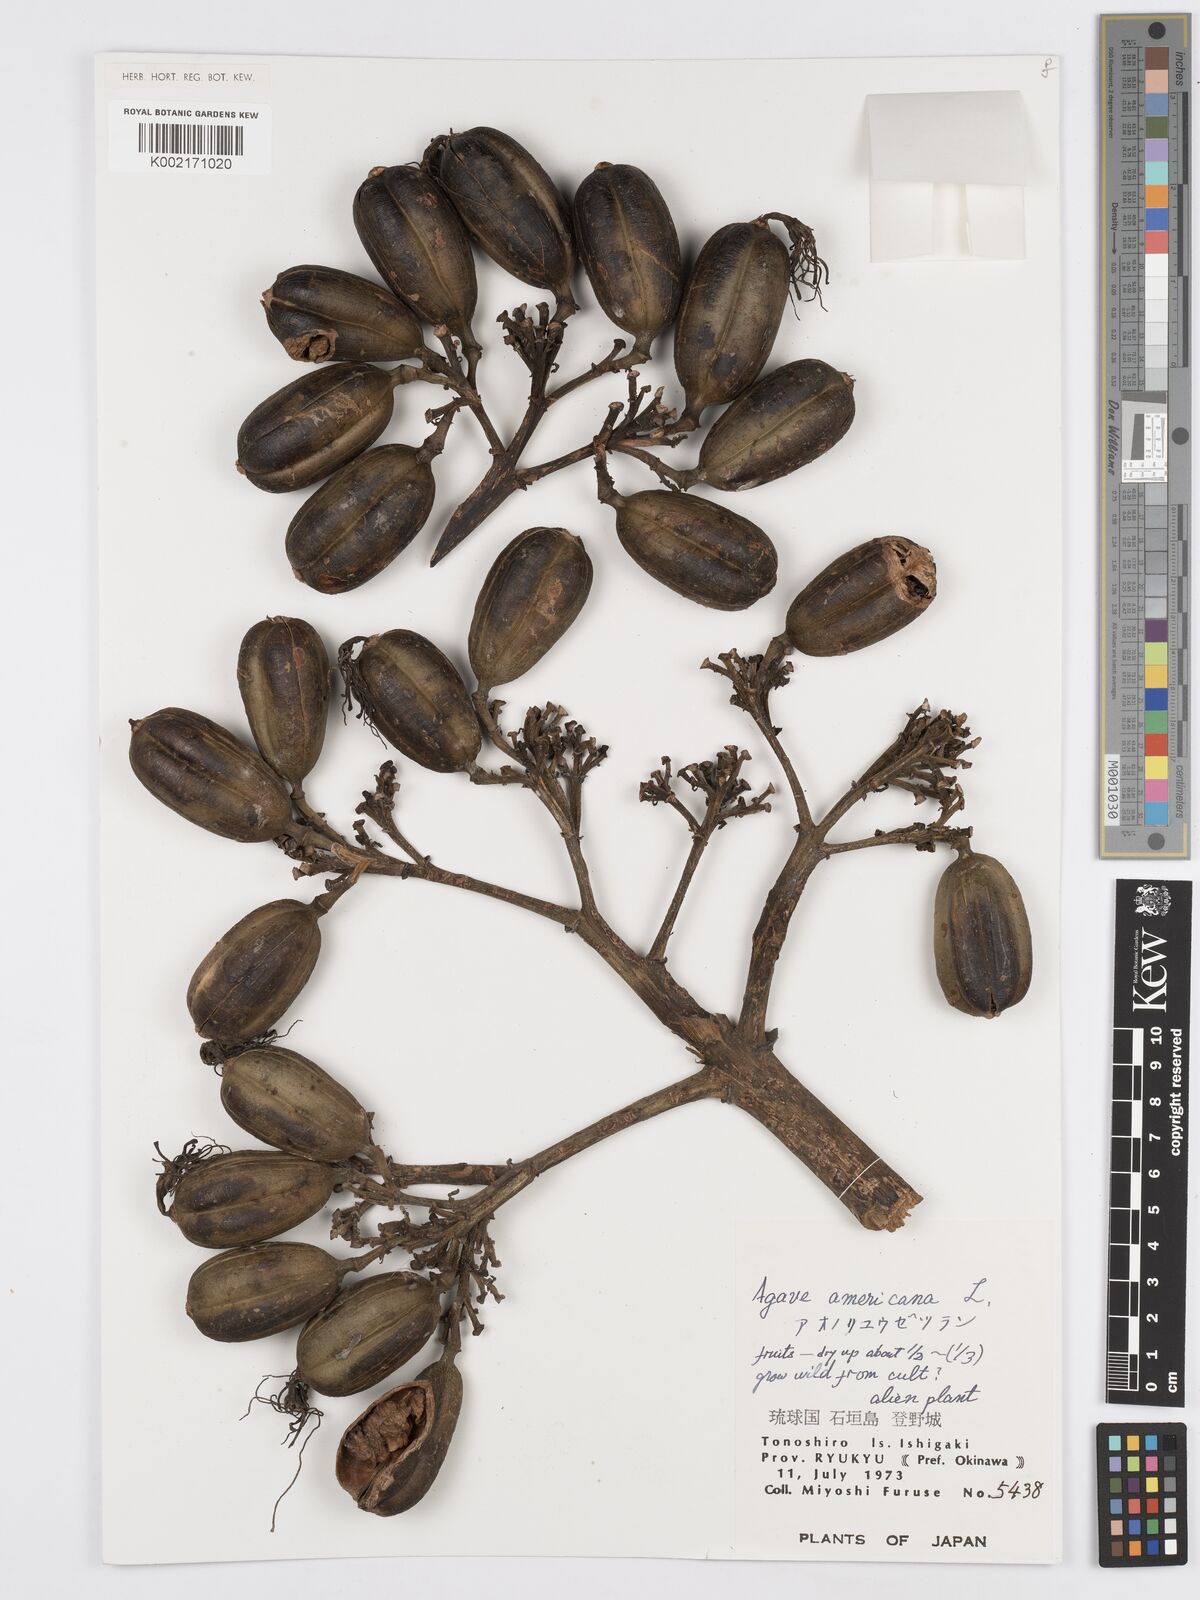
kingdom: Plantae
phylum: Tracheophyta
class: Liliopsida
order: Asparagales
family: Asparagaceae
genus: Agave
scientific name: Agave americana
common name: Centuryplant
